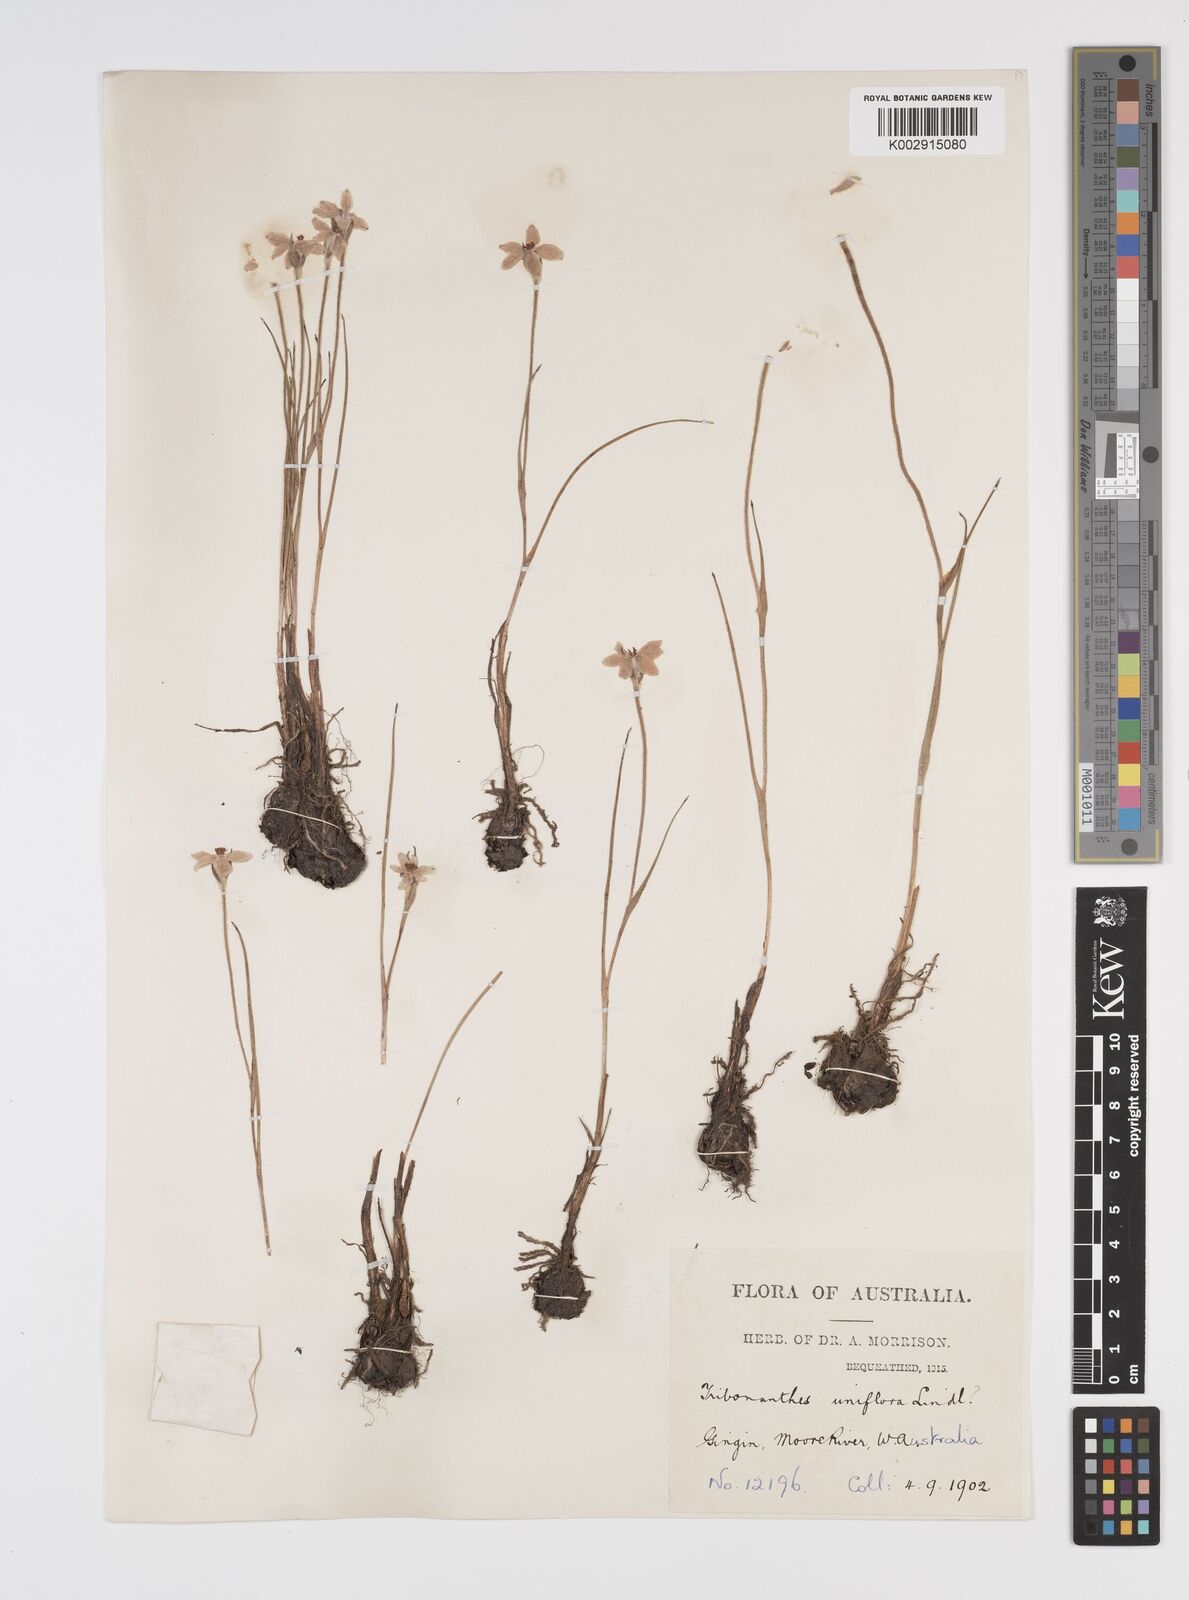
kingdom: Plantae
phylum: Tracheophyta
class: Liliopsida
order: Commelinales
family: Haemodoraceae
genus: Tribonanthes
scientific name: Tribonanthes uniflora
